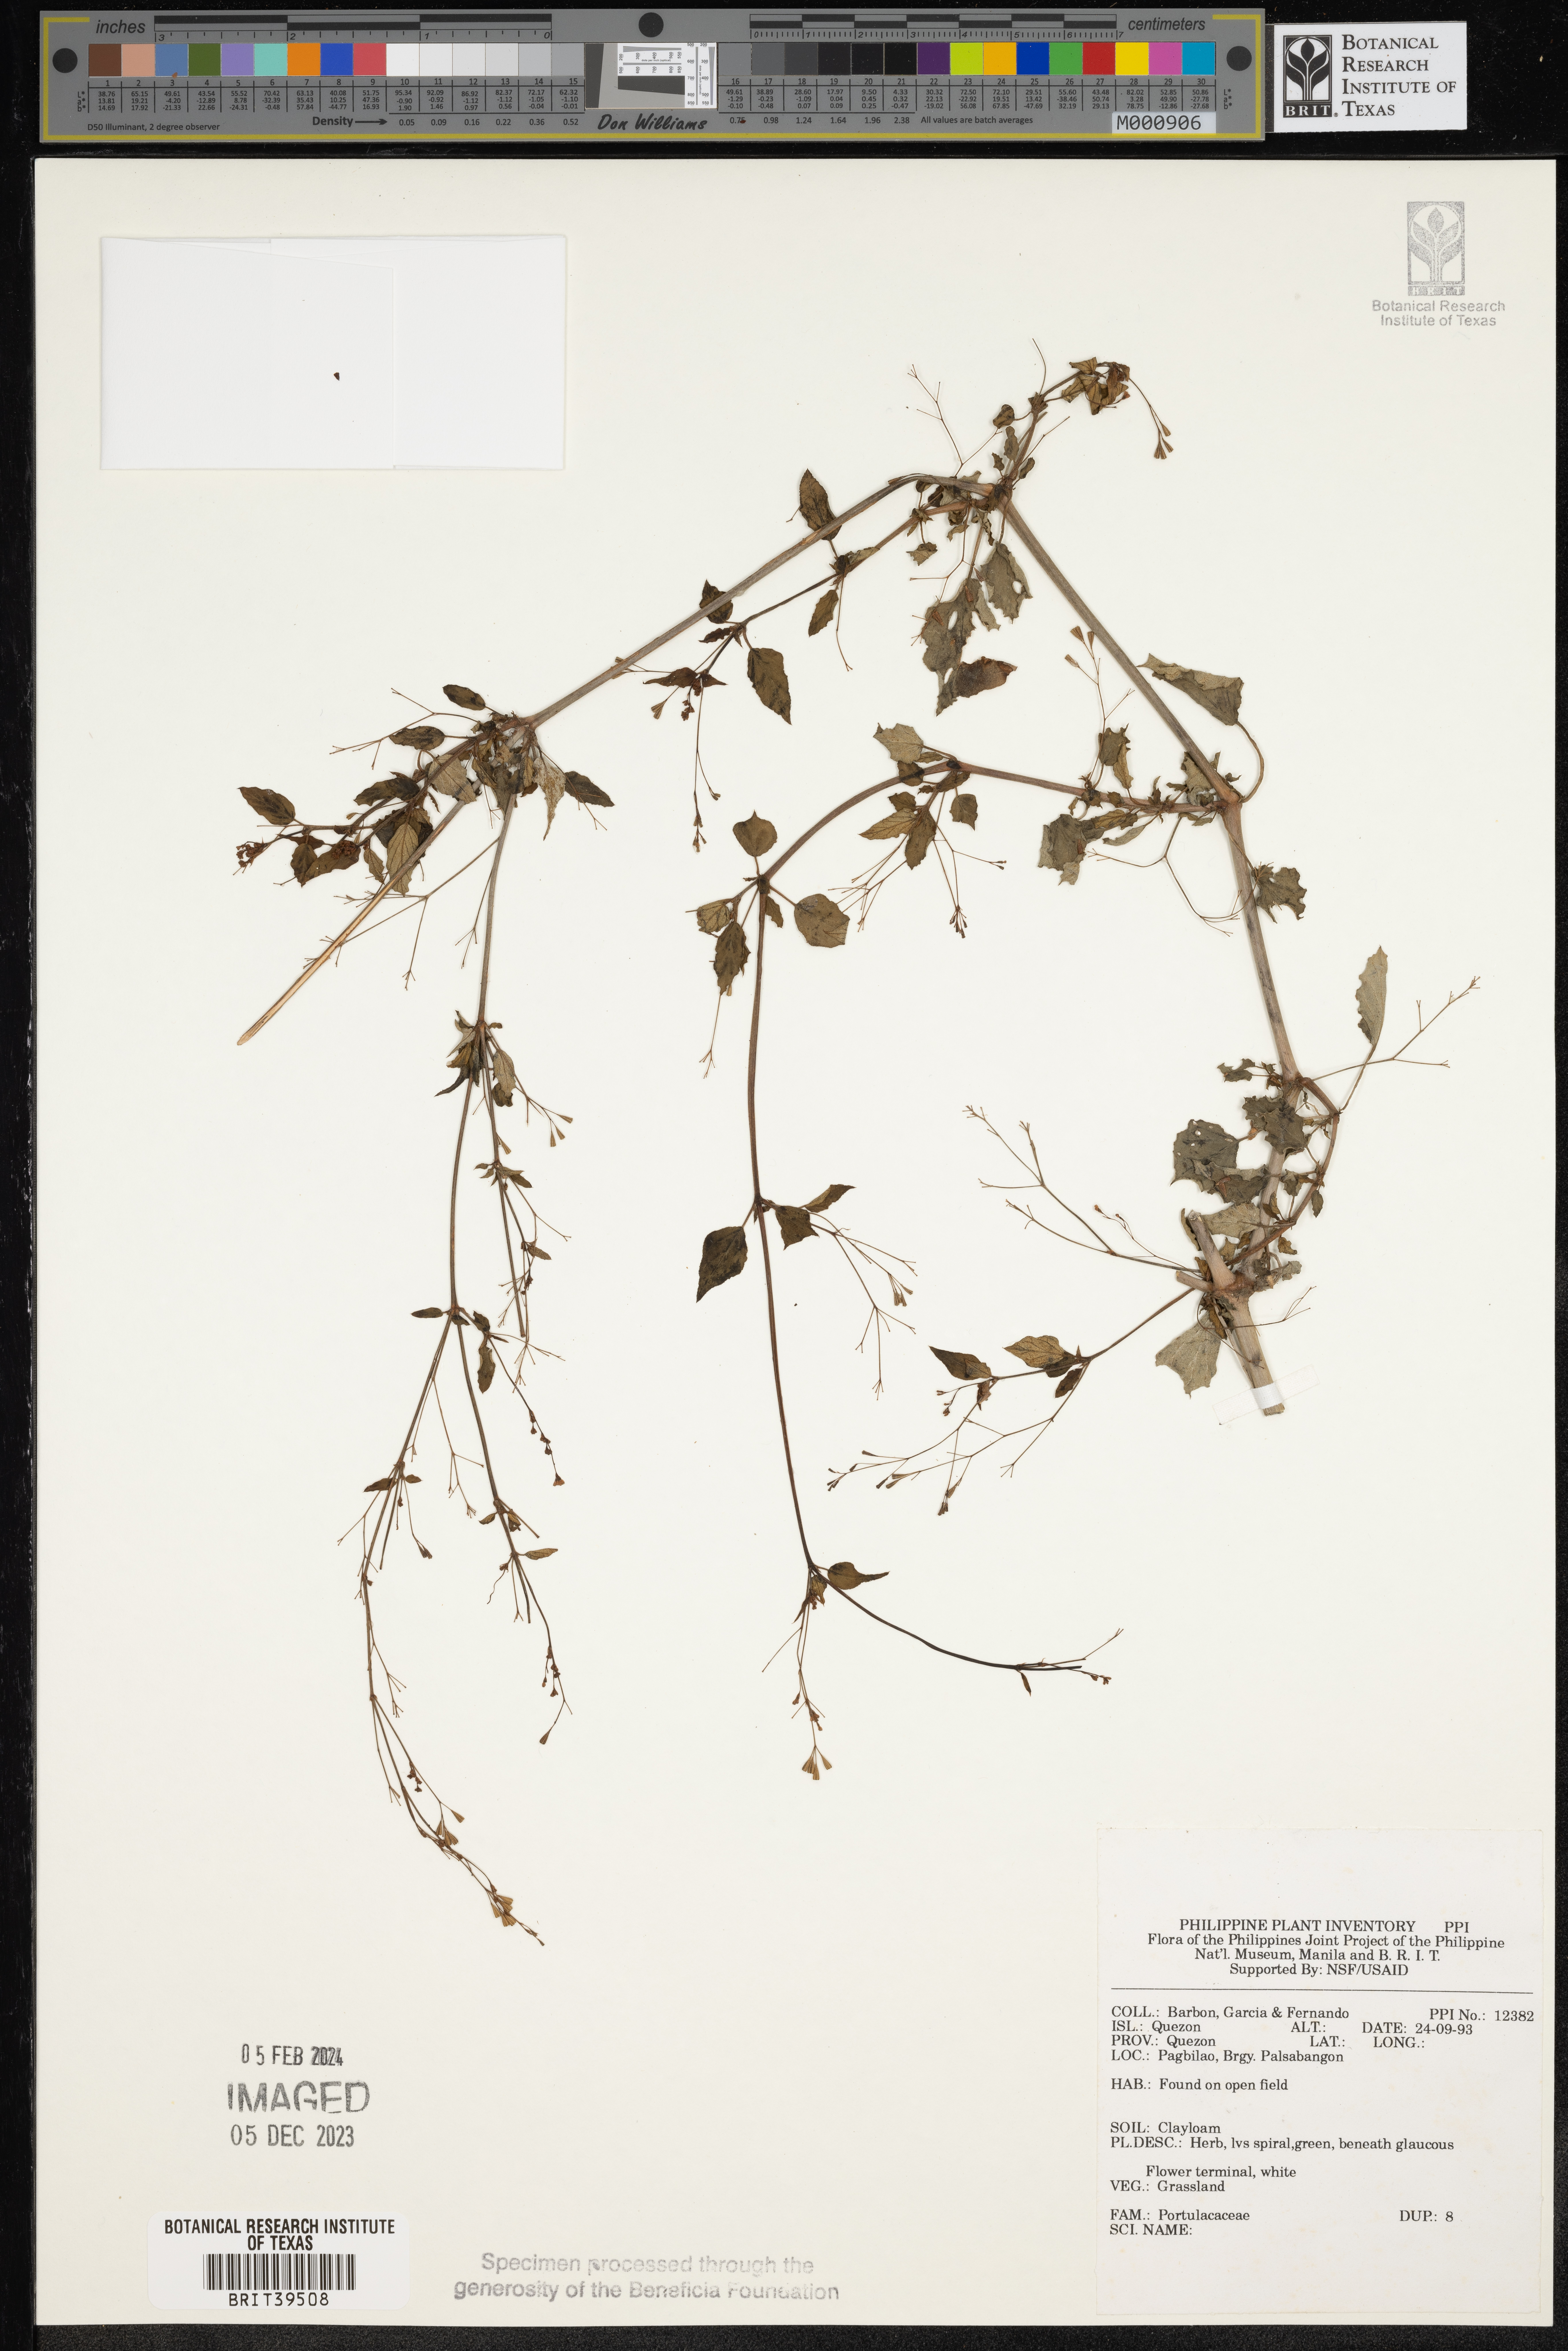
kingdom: Plantae
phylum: Tracheophyta
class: Magnoliopsida
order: Caryophyllales
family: Portulacaceae
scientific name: Portulacaceae
